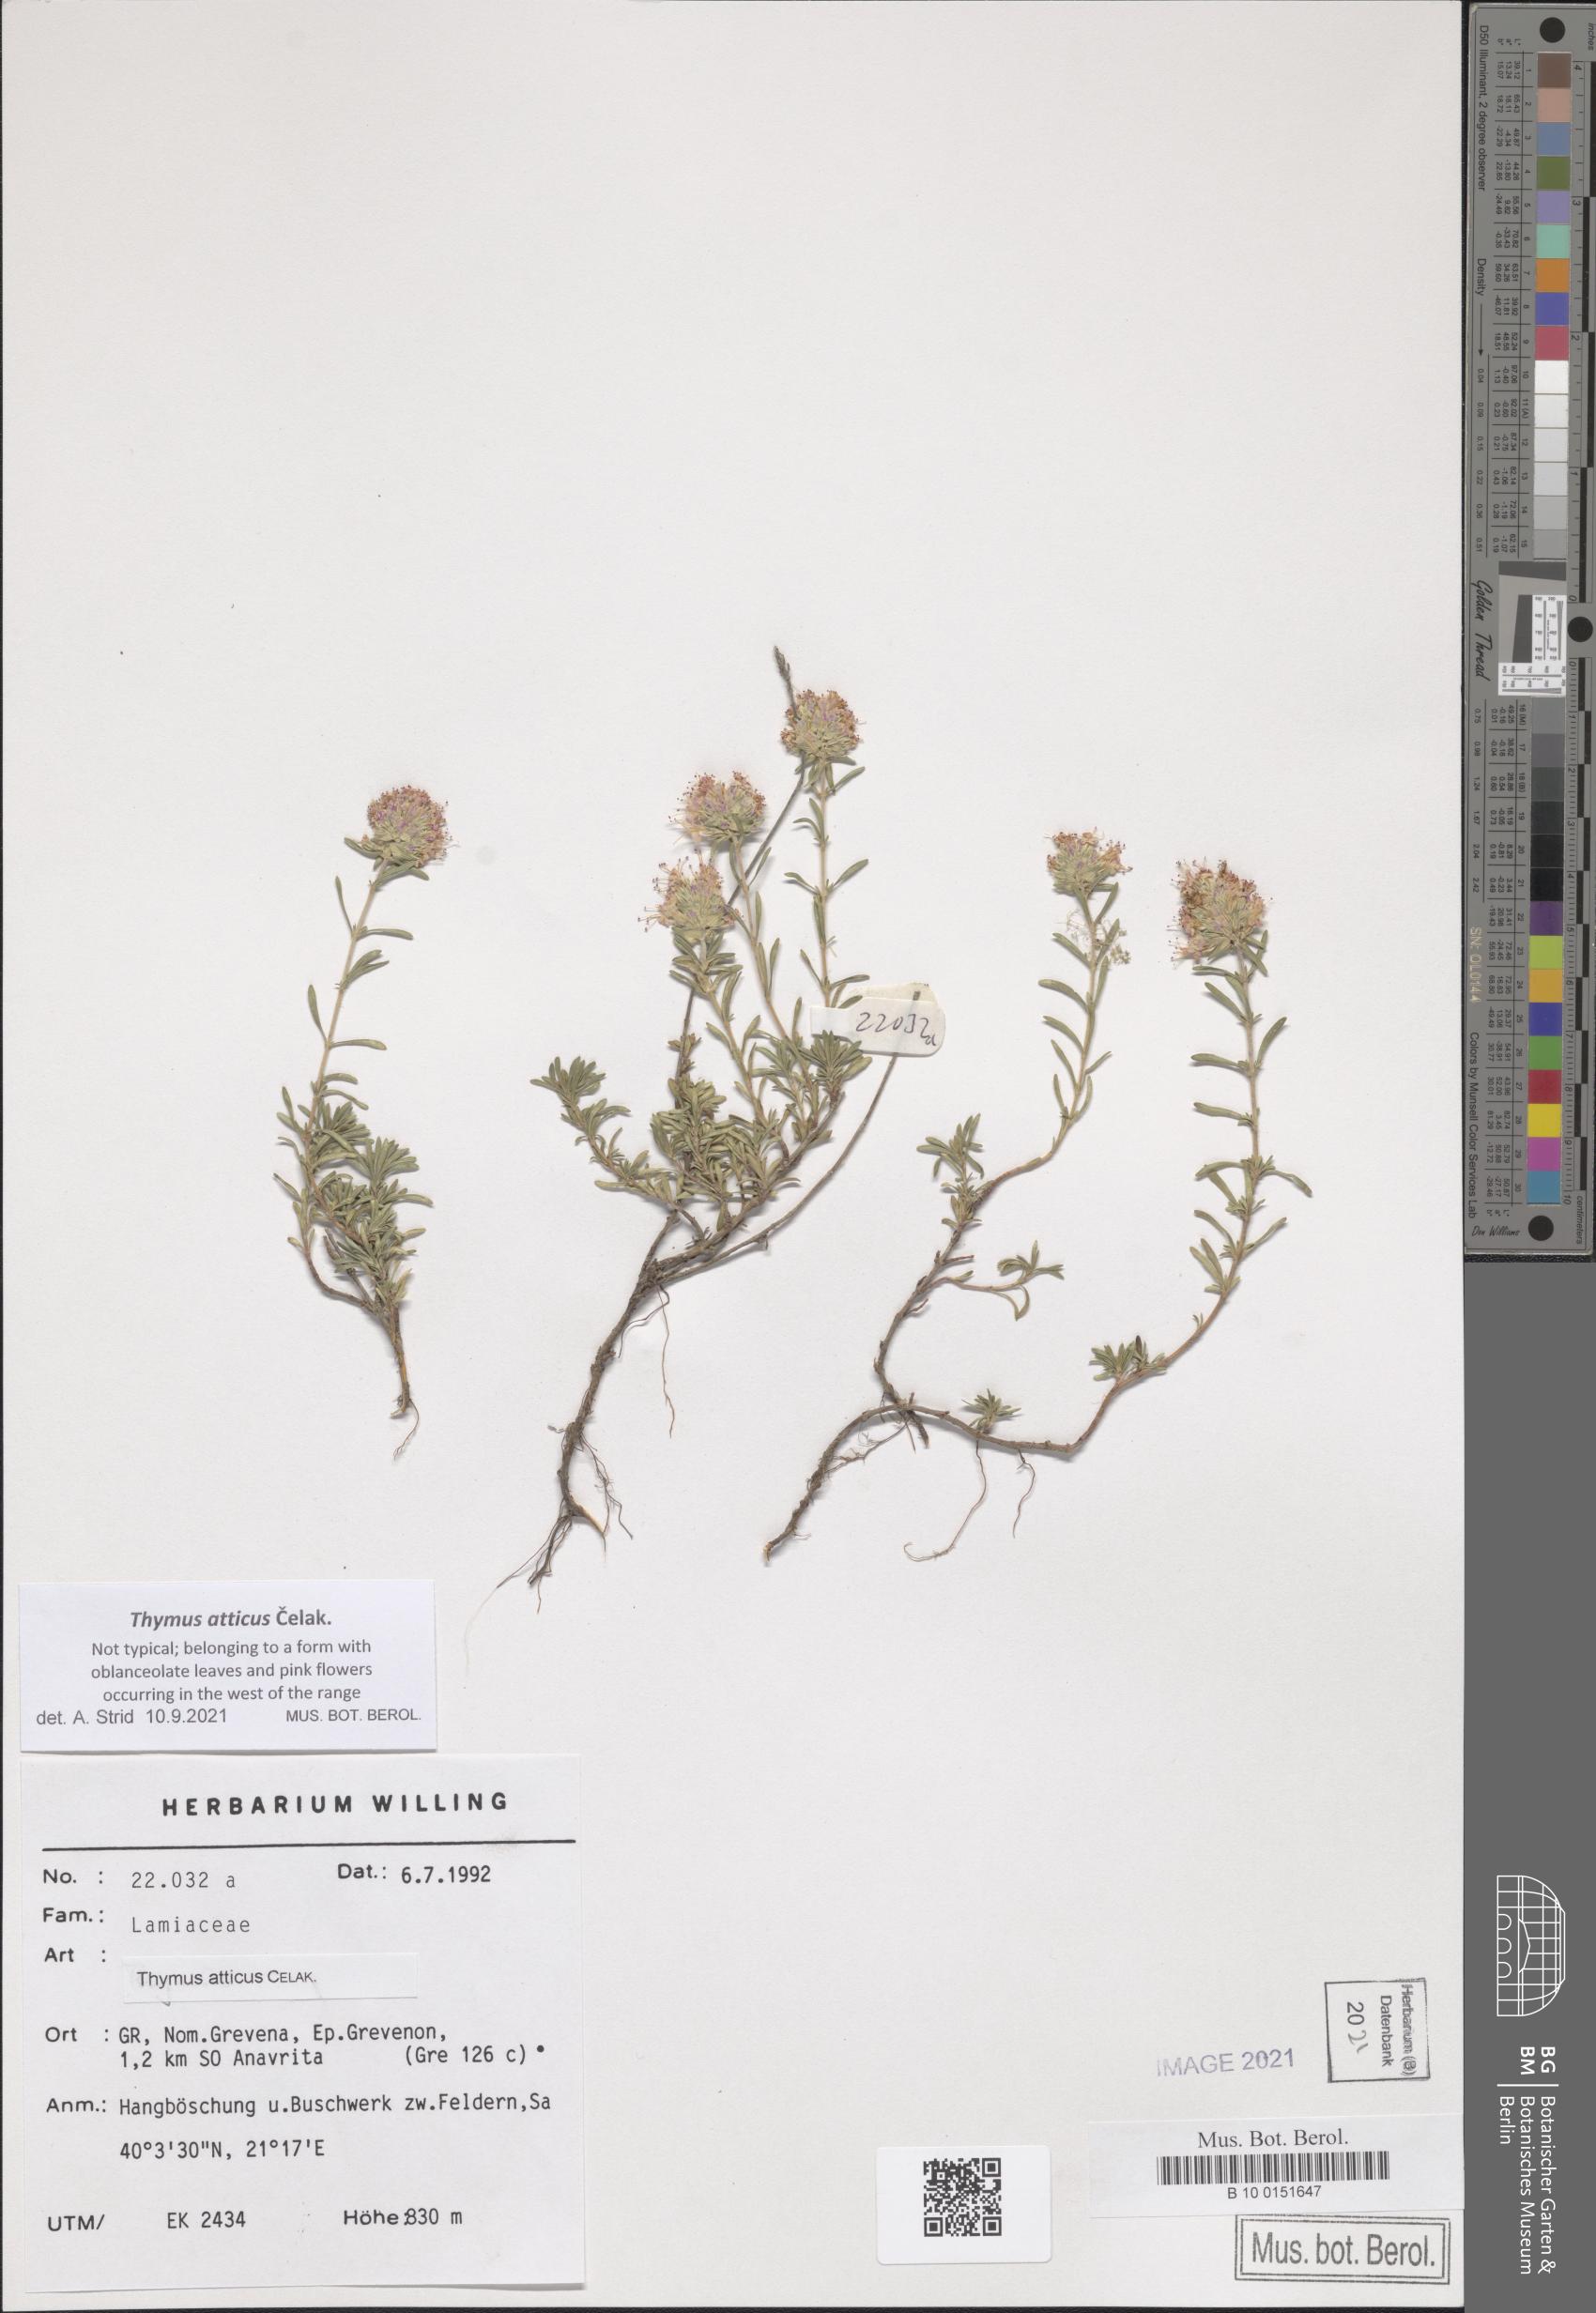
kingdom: Plantae
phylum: Tracheophyta
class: Magnoliopsida
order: Lamiales
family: Lamiaceae
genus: Thymus
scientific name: Thymus atticus
